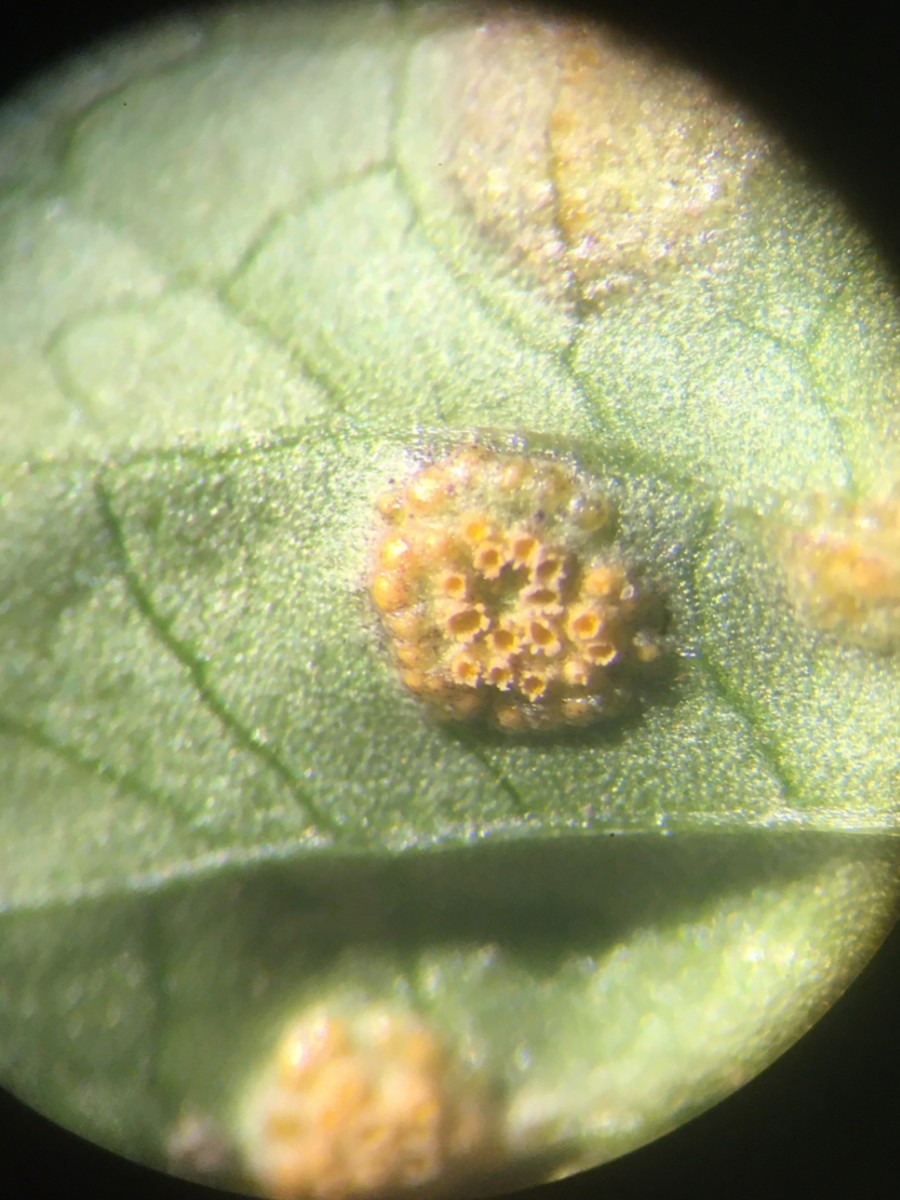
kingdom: Fungi
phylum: Basidiomycota
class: Pucciniomycetes
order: Pucciniales
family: Pucciniaceae
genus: Puccinia
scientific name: Puccinia violae
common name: viol-tvecellerust
